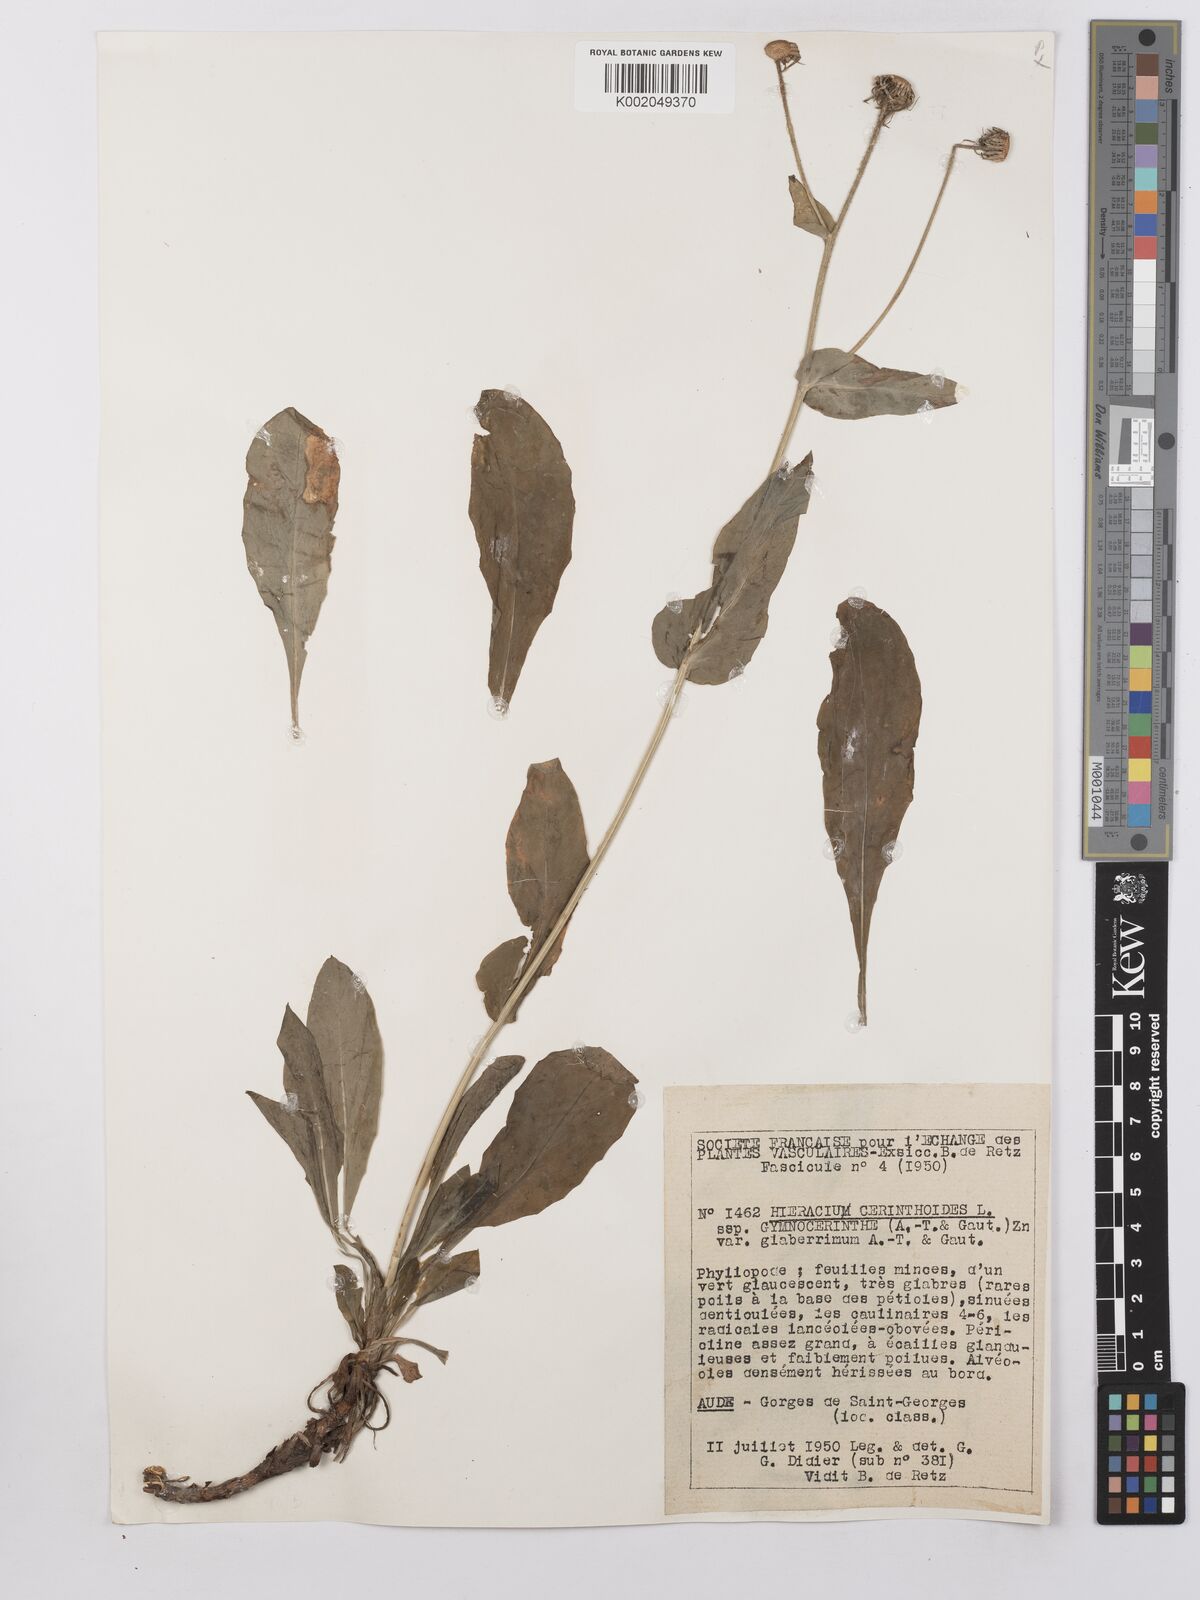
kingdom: Plantae
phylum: Tracheophyta
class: Magnoliopsida
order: Asterales
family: Asteraceae
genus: Hieracium
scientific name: Hieracium cerinthoides
